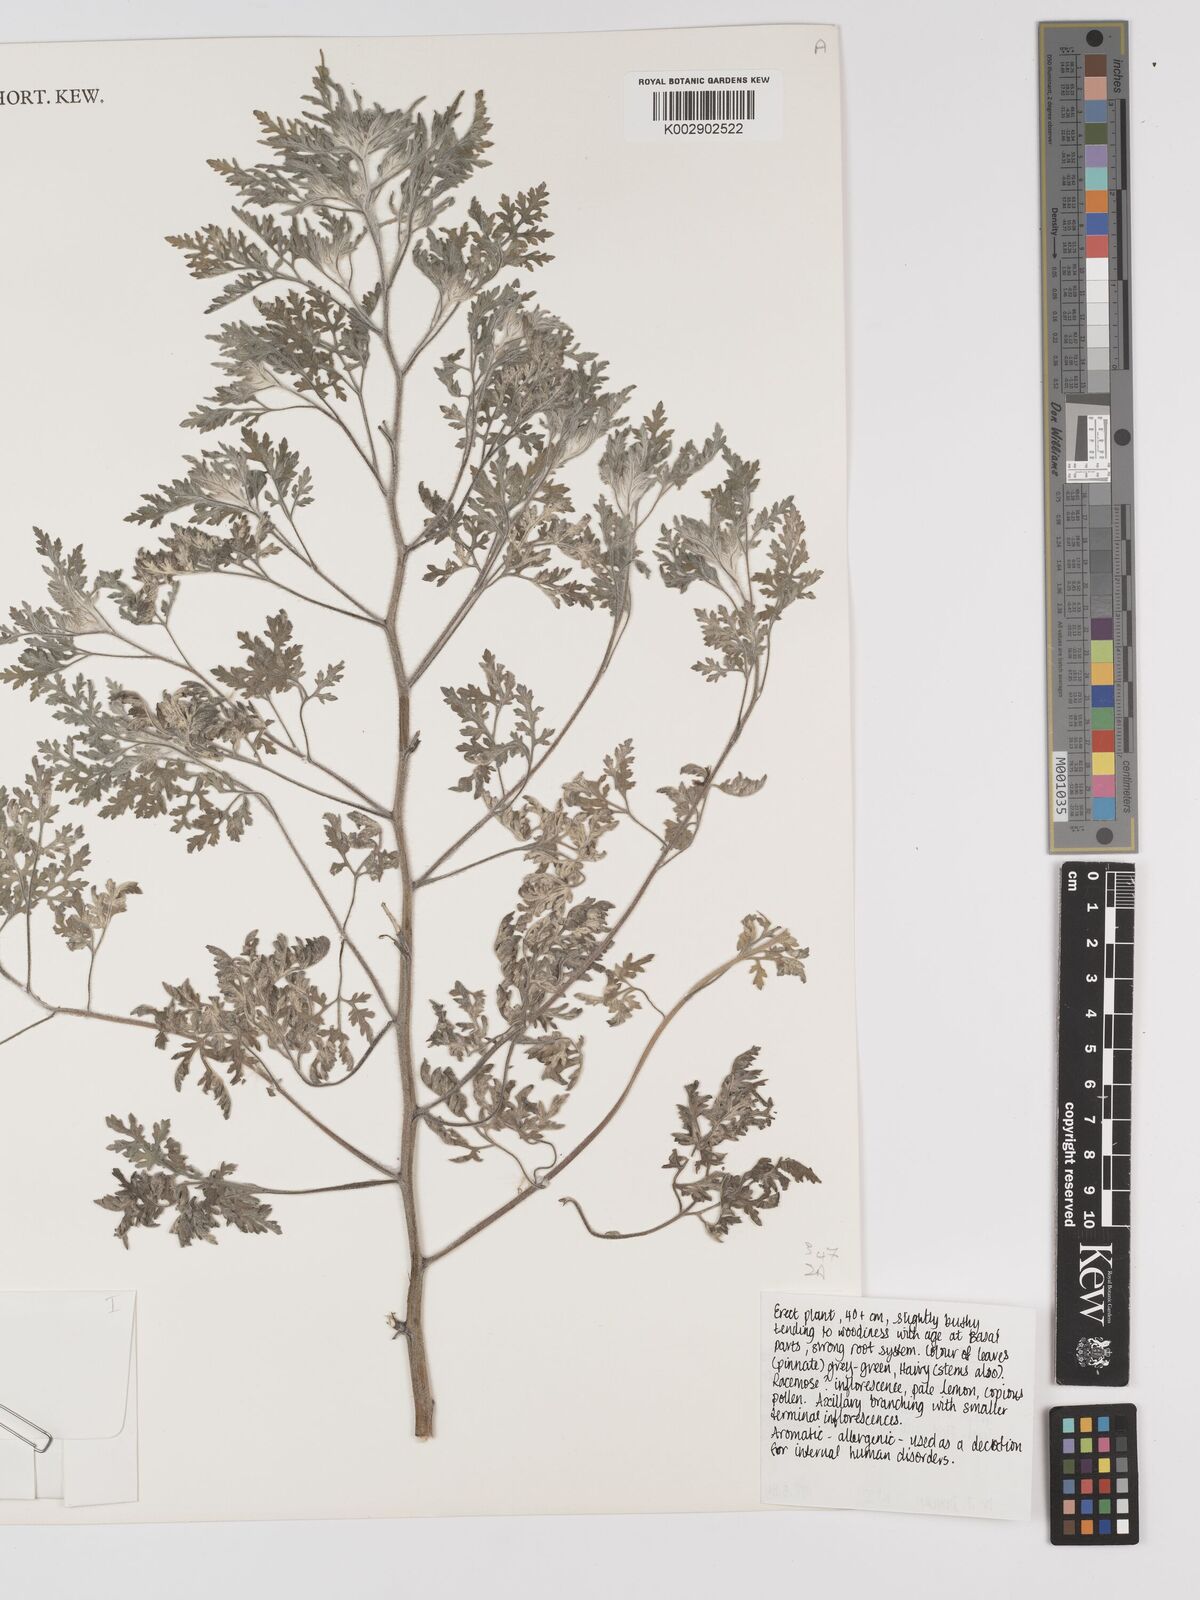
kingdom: Plantae
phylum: Tracheophyta
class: Magnoliopsida
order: Asterales
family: Asteraceae
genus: Ambrosia
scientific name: Ambrosia maritima
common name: Sea ambrosia
